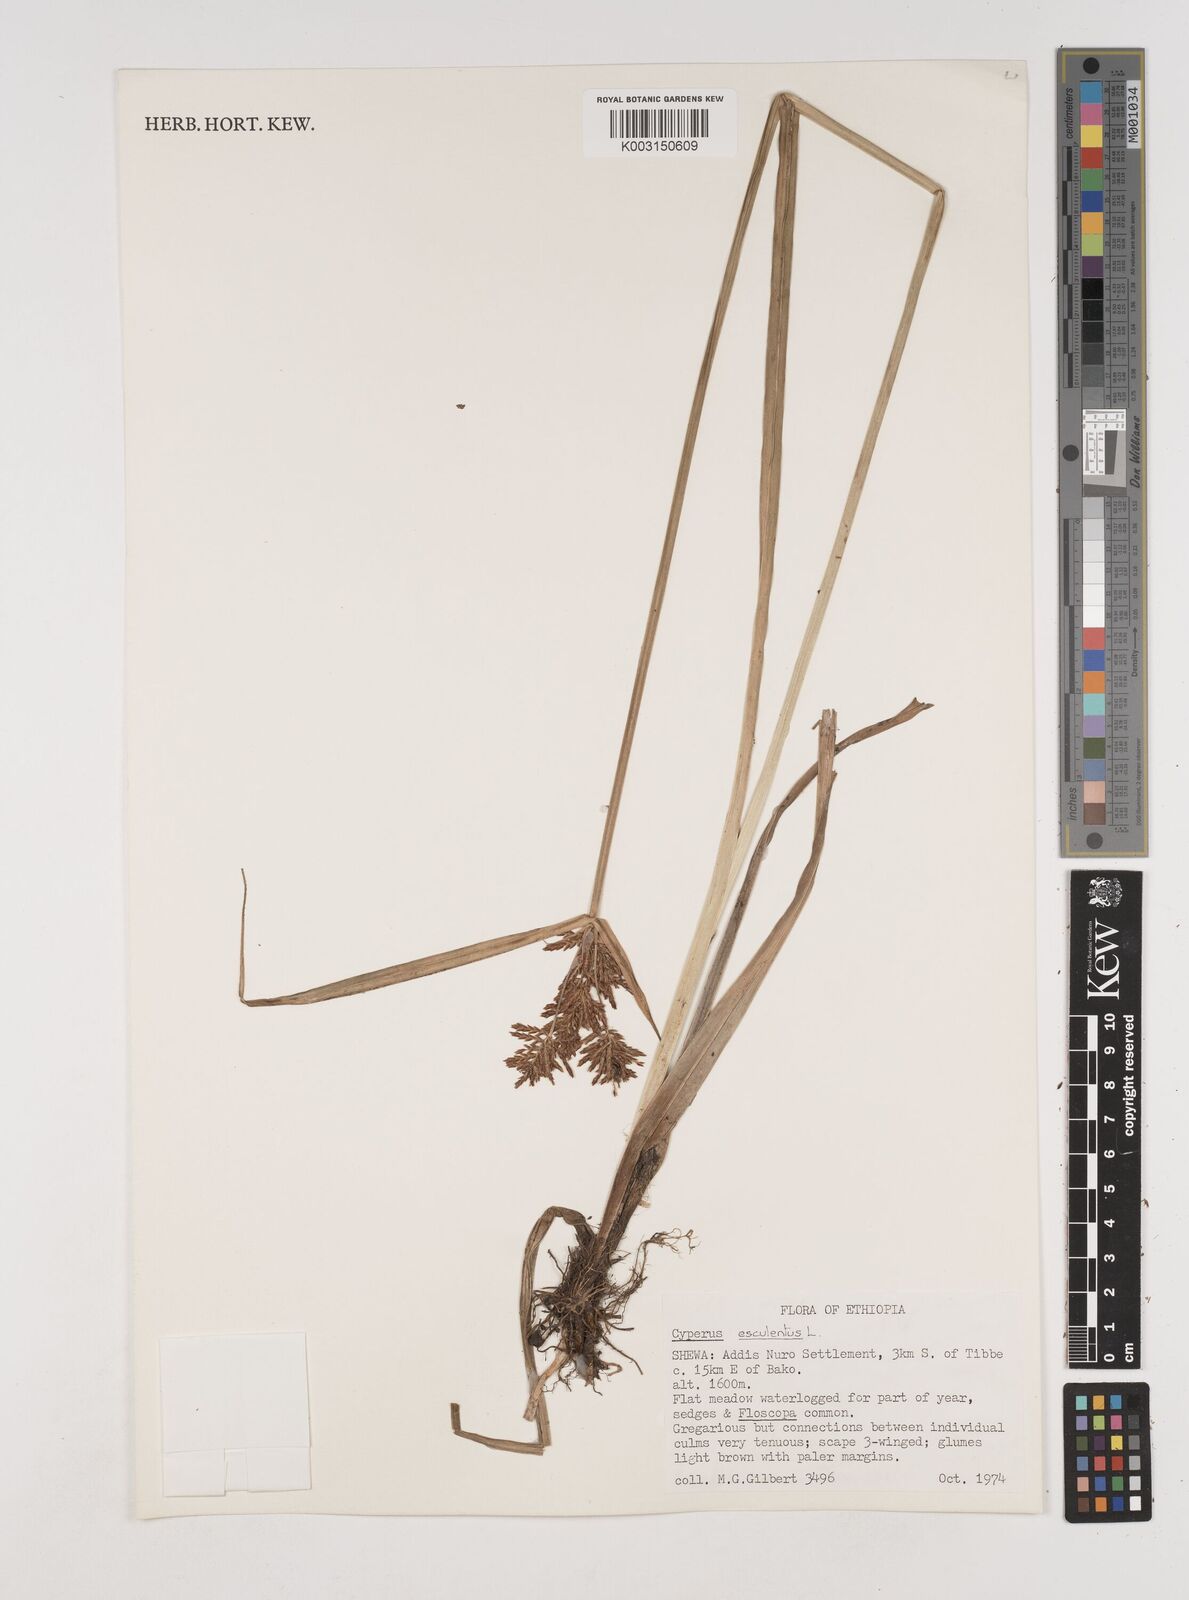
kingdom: Plantae
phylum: Tracheophyta
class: Liliopsida
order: Poales
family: Cyperaceae
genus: Cyperus
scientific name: Cyperus esculentus
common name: Yellow nutsedge
